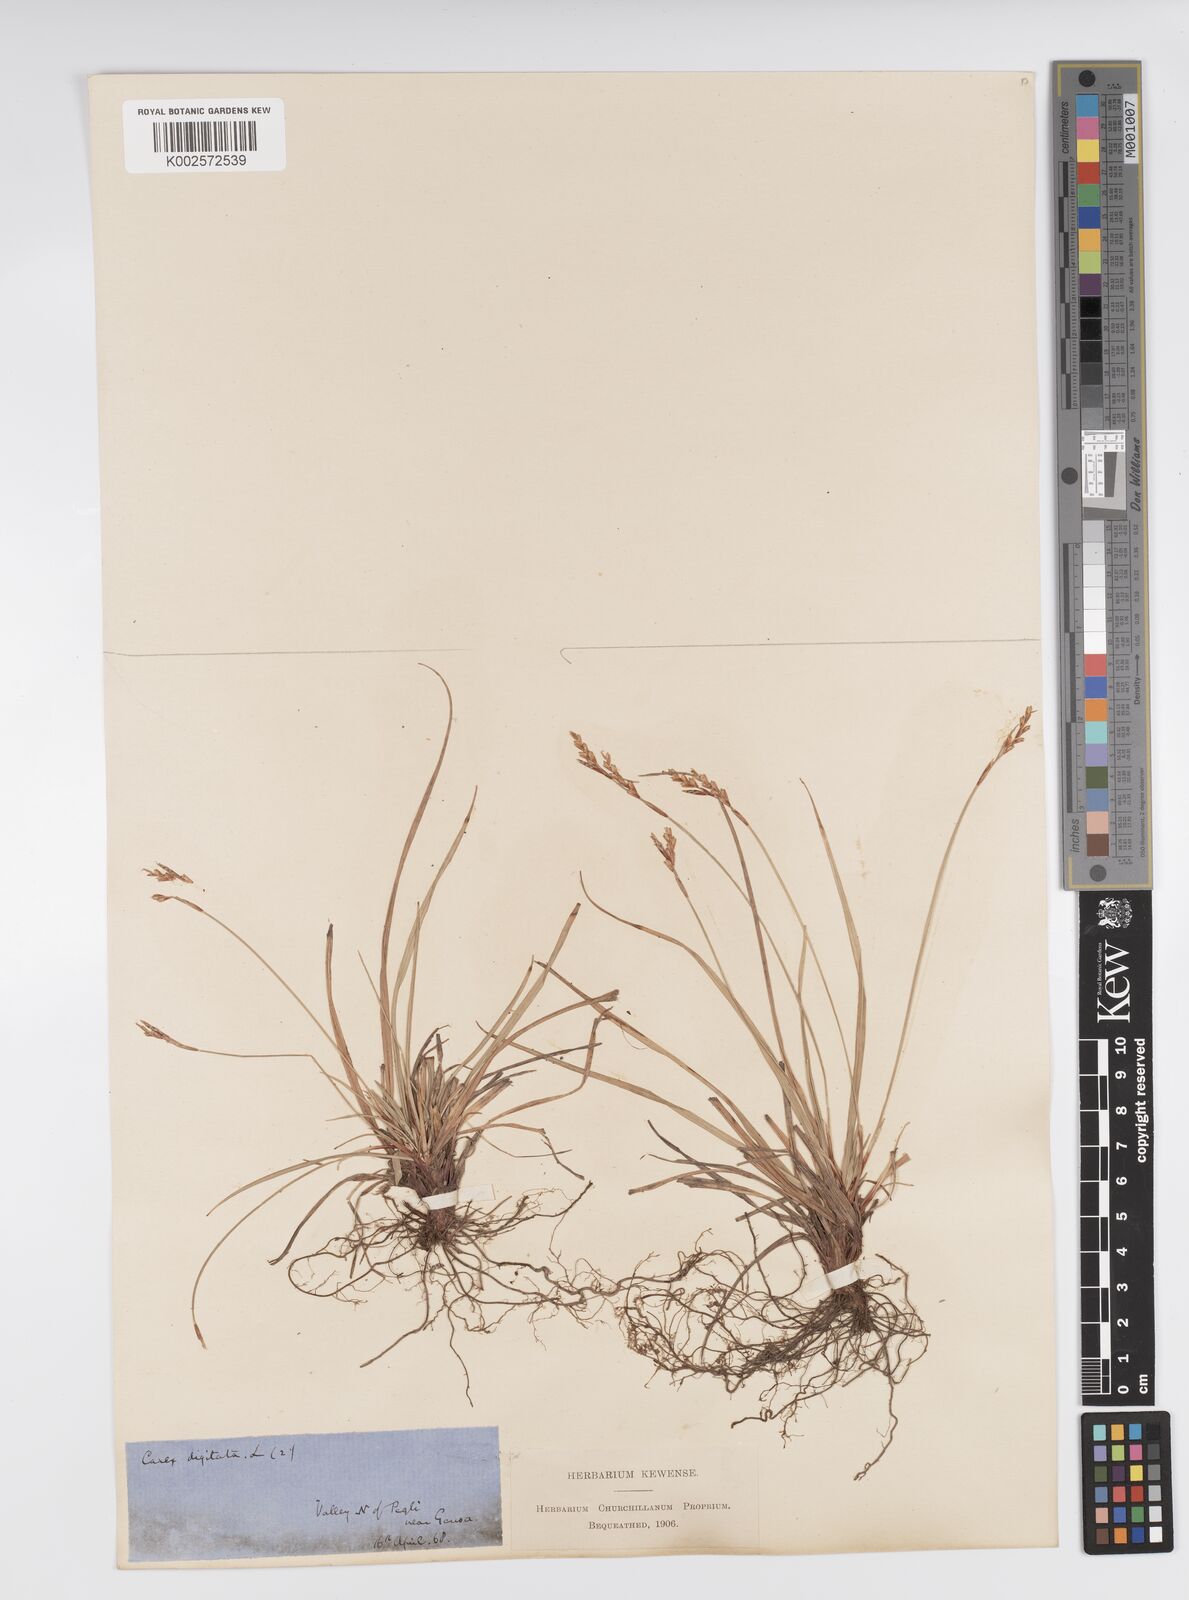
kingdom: Plantae
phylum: Tracheophyta
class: Liliopsida
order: Poales
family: Cyperaceae
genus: Carex
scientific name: Carex digitata
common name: Fingered sedge
